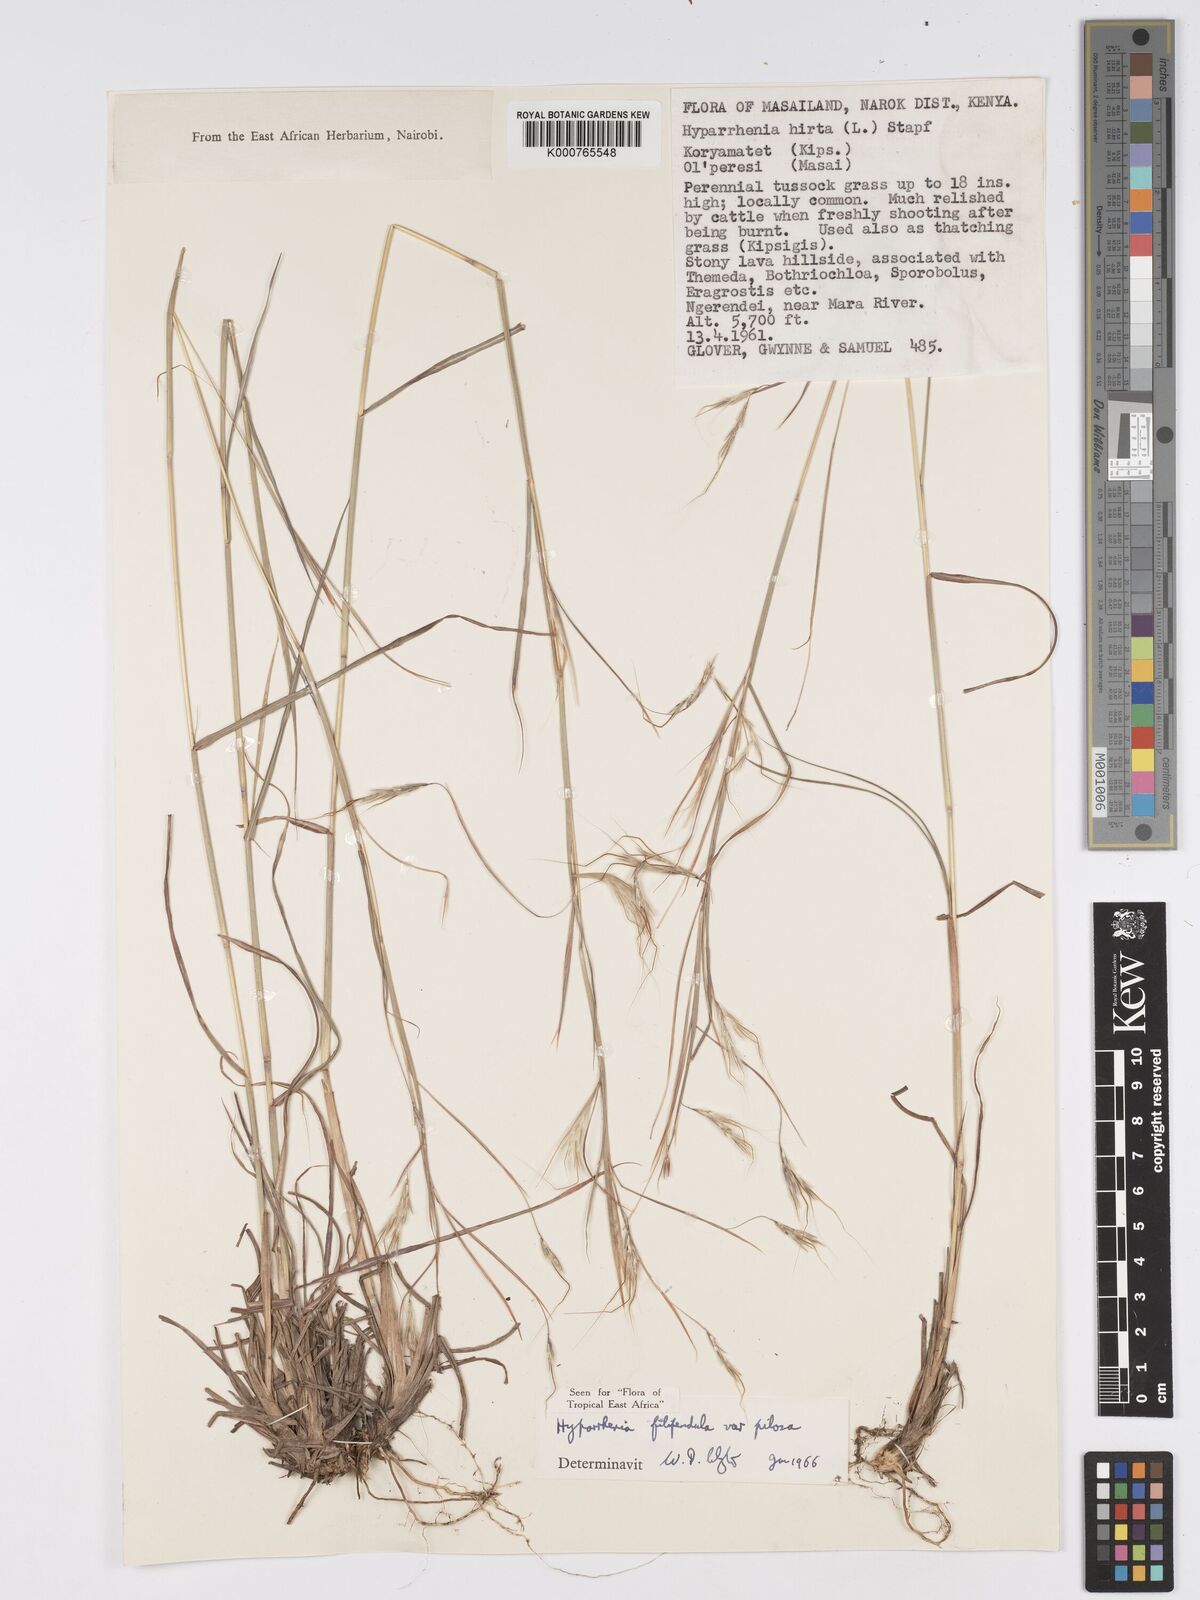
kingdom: Plantae
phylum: Tracheophyta
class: Liliopsida
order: Poales
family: Poaceae
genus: Hyparrhenia
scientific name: Hyparrhenia filipendula
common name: Tambookie grass
